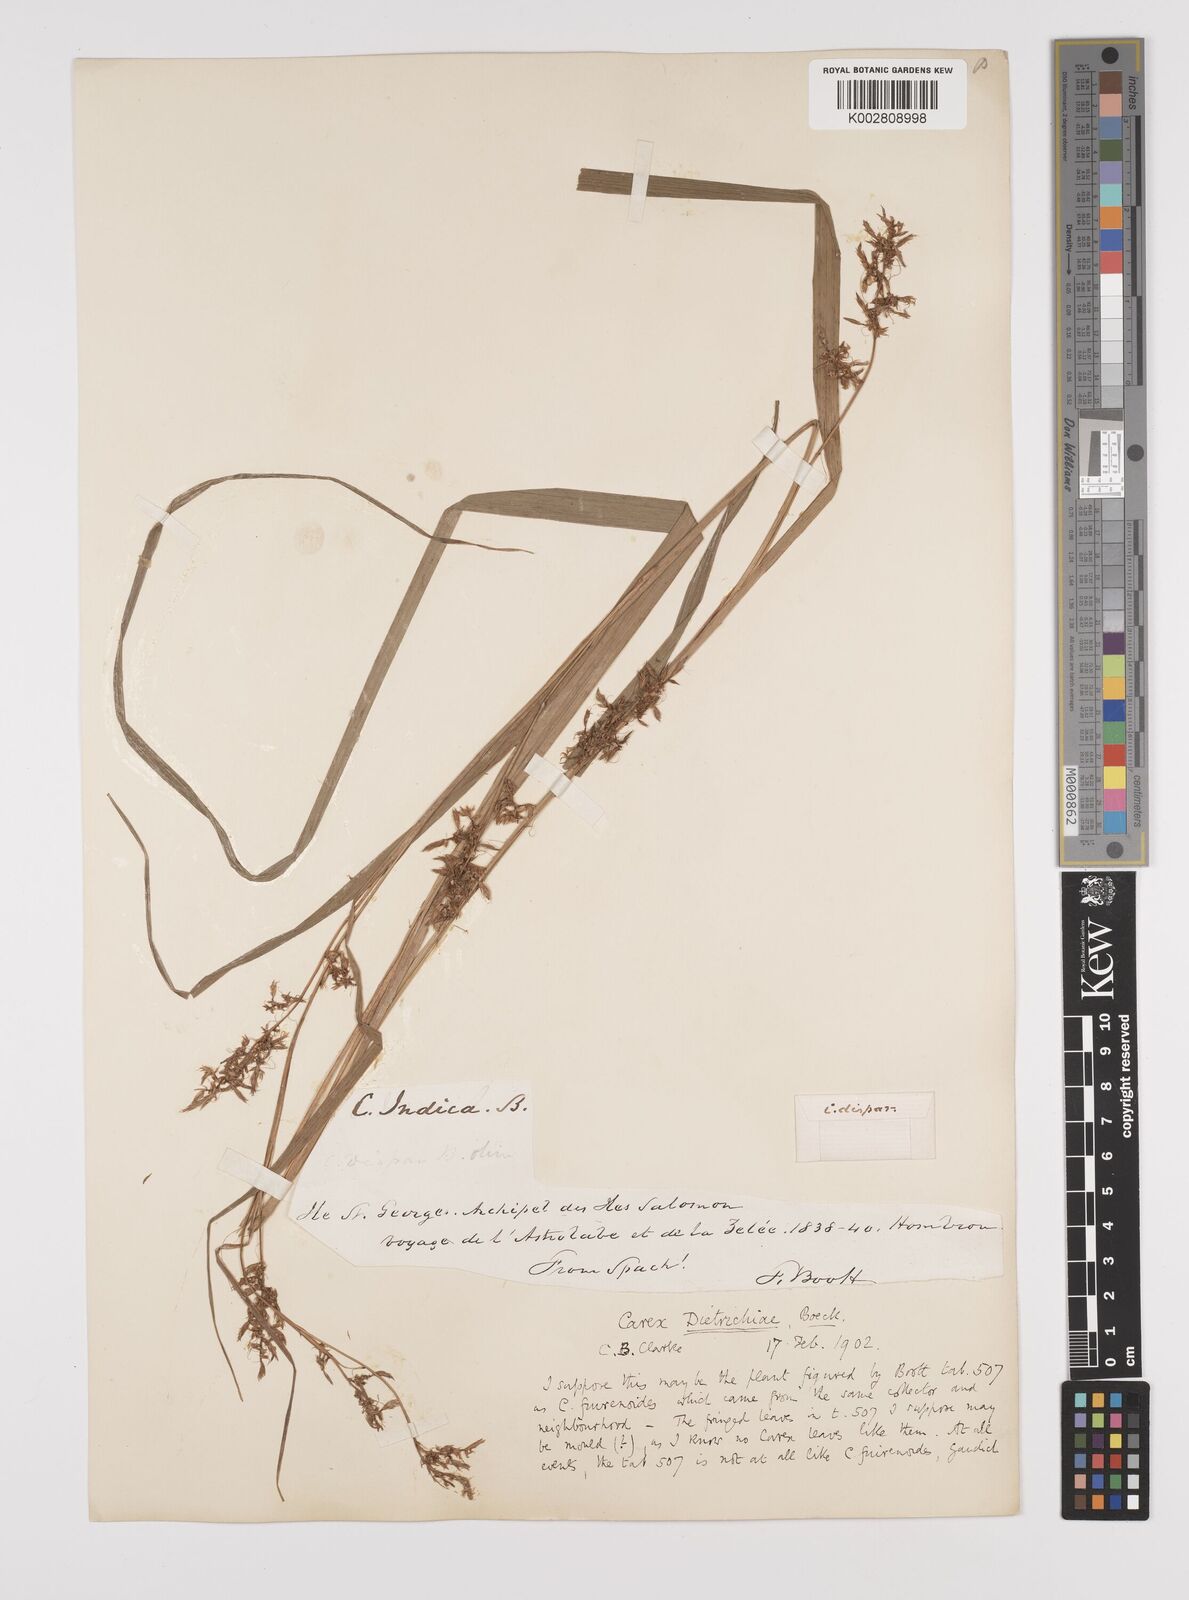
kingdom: Plantae
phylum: Tracheophyta
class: Liliopsida
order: Poales
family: Cyperaceae
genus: Carex
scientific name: Carex indica
